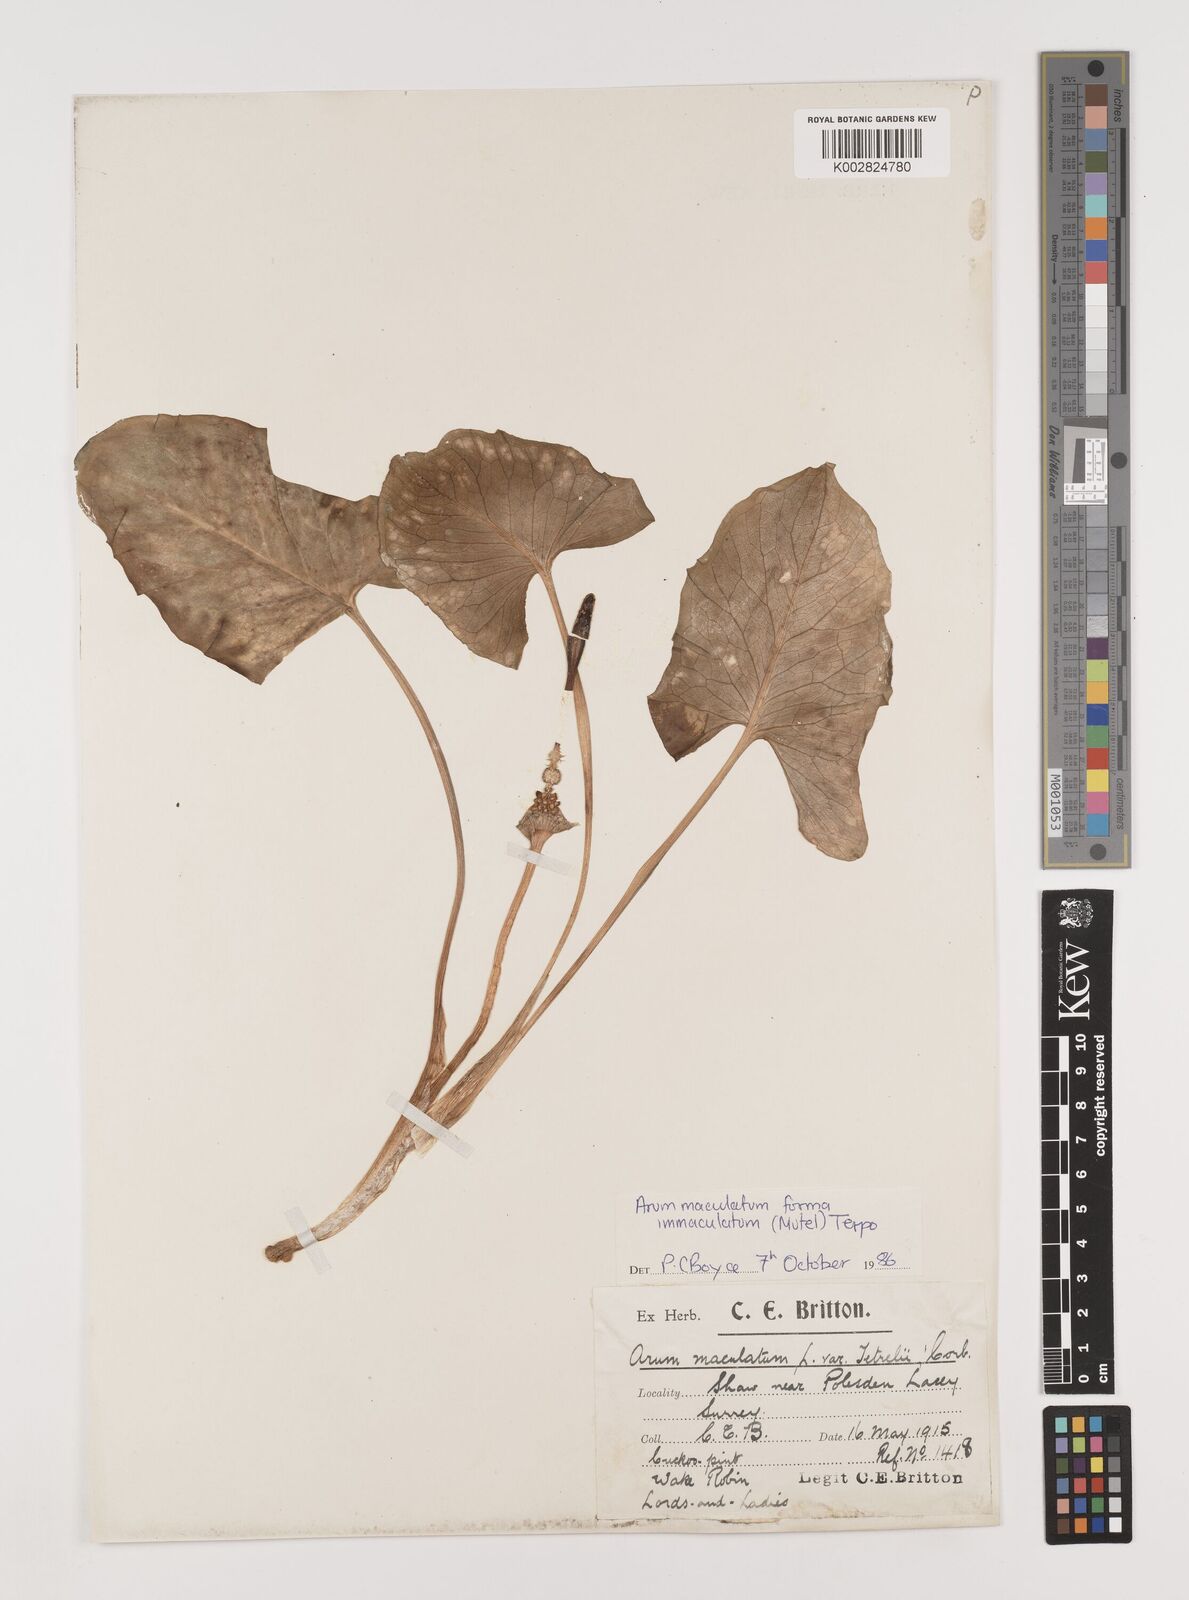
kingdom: Plantae
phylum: Tracheophyta
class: Liliopsida
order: Alismatales
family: Araceae
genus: Arum
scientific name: Arum maculatum
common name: Lords-and-ladies
